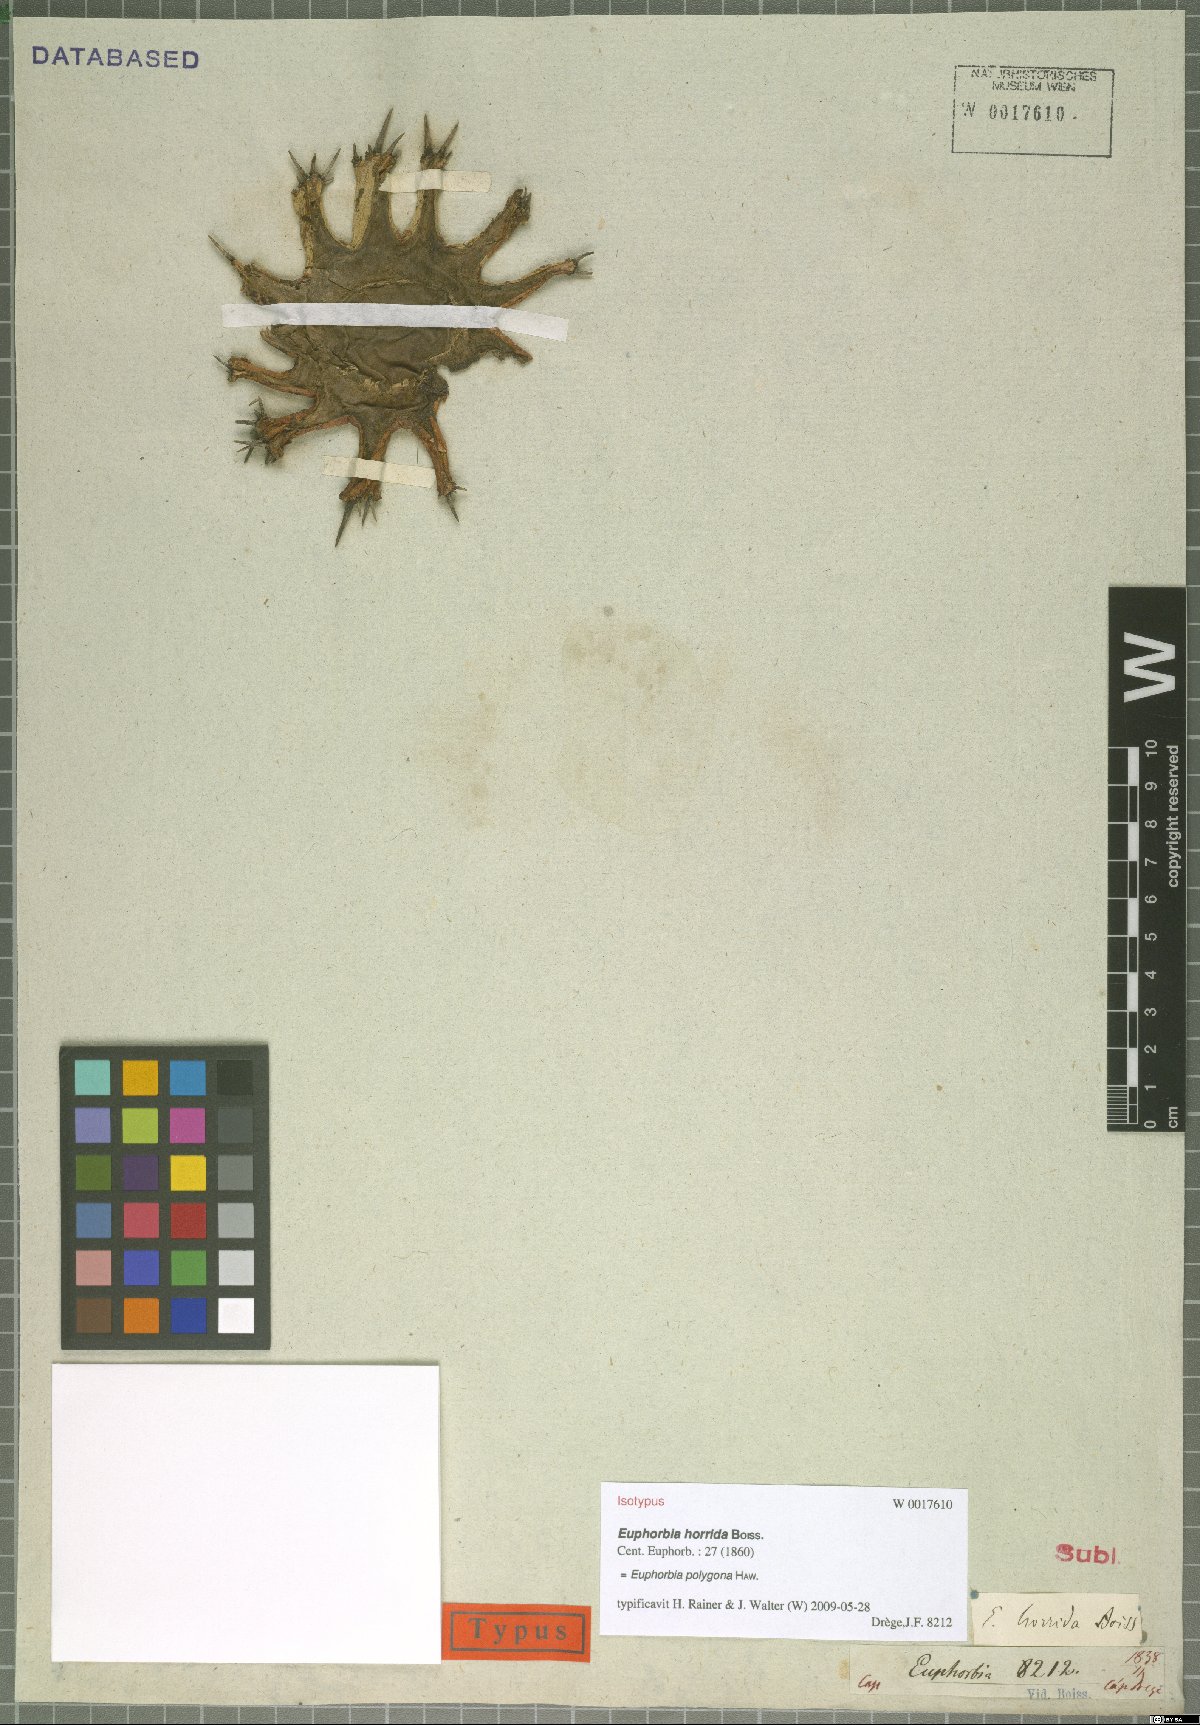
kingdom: Plantae
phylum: Tracheophyta
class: Magnoliopsida
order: Malpighiales
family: Euphorbiaceae
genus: Euphorbia
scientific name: Euphorbia polygona
